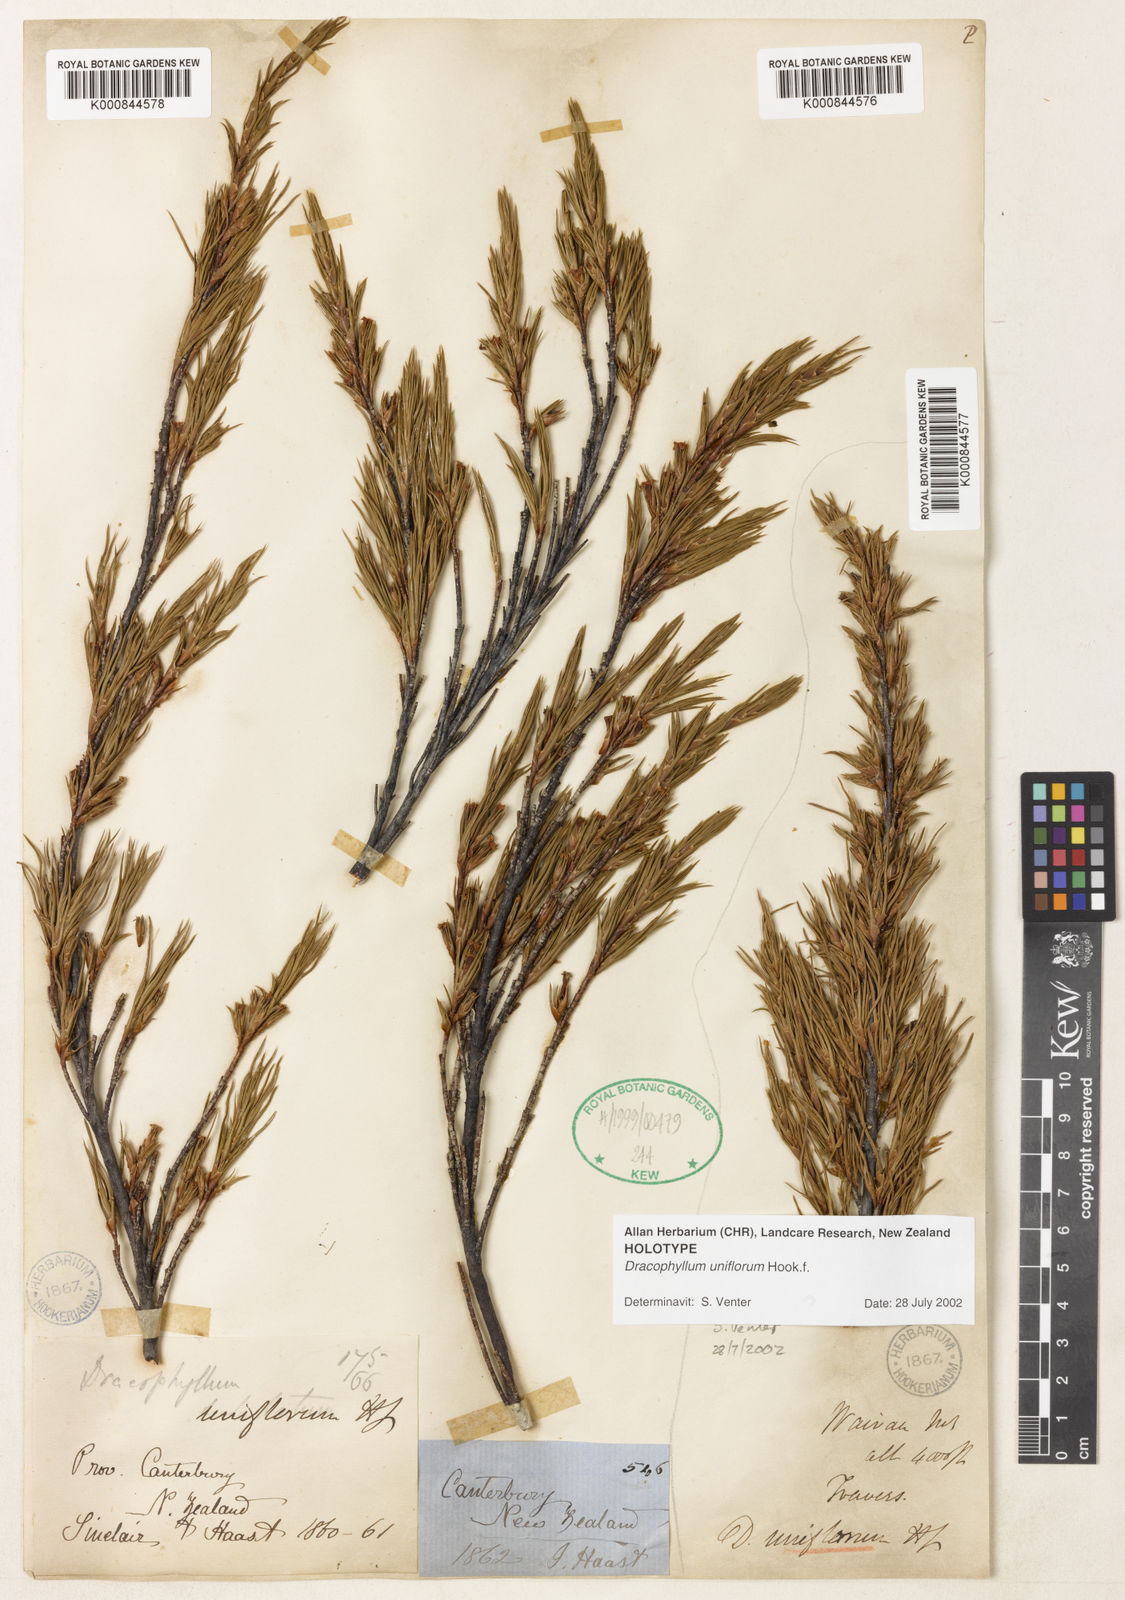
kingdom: Plantae
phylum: Tracheophyta
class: Magnoliopsida
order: Ericales
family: Ericaceae
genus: Dracophyllum
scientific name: Dracophyllum uniflorum
